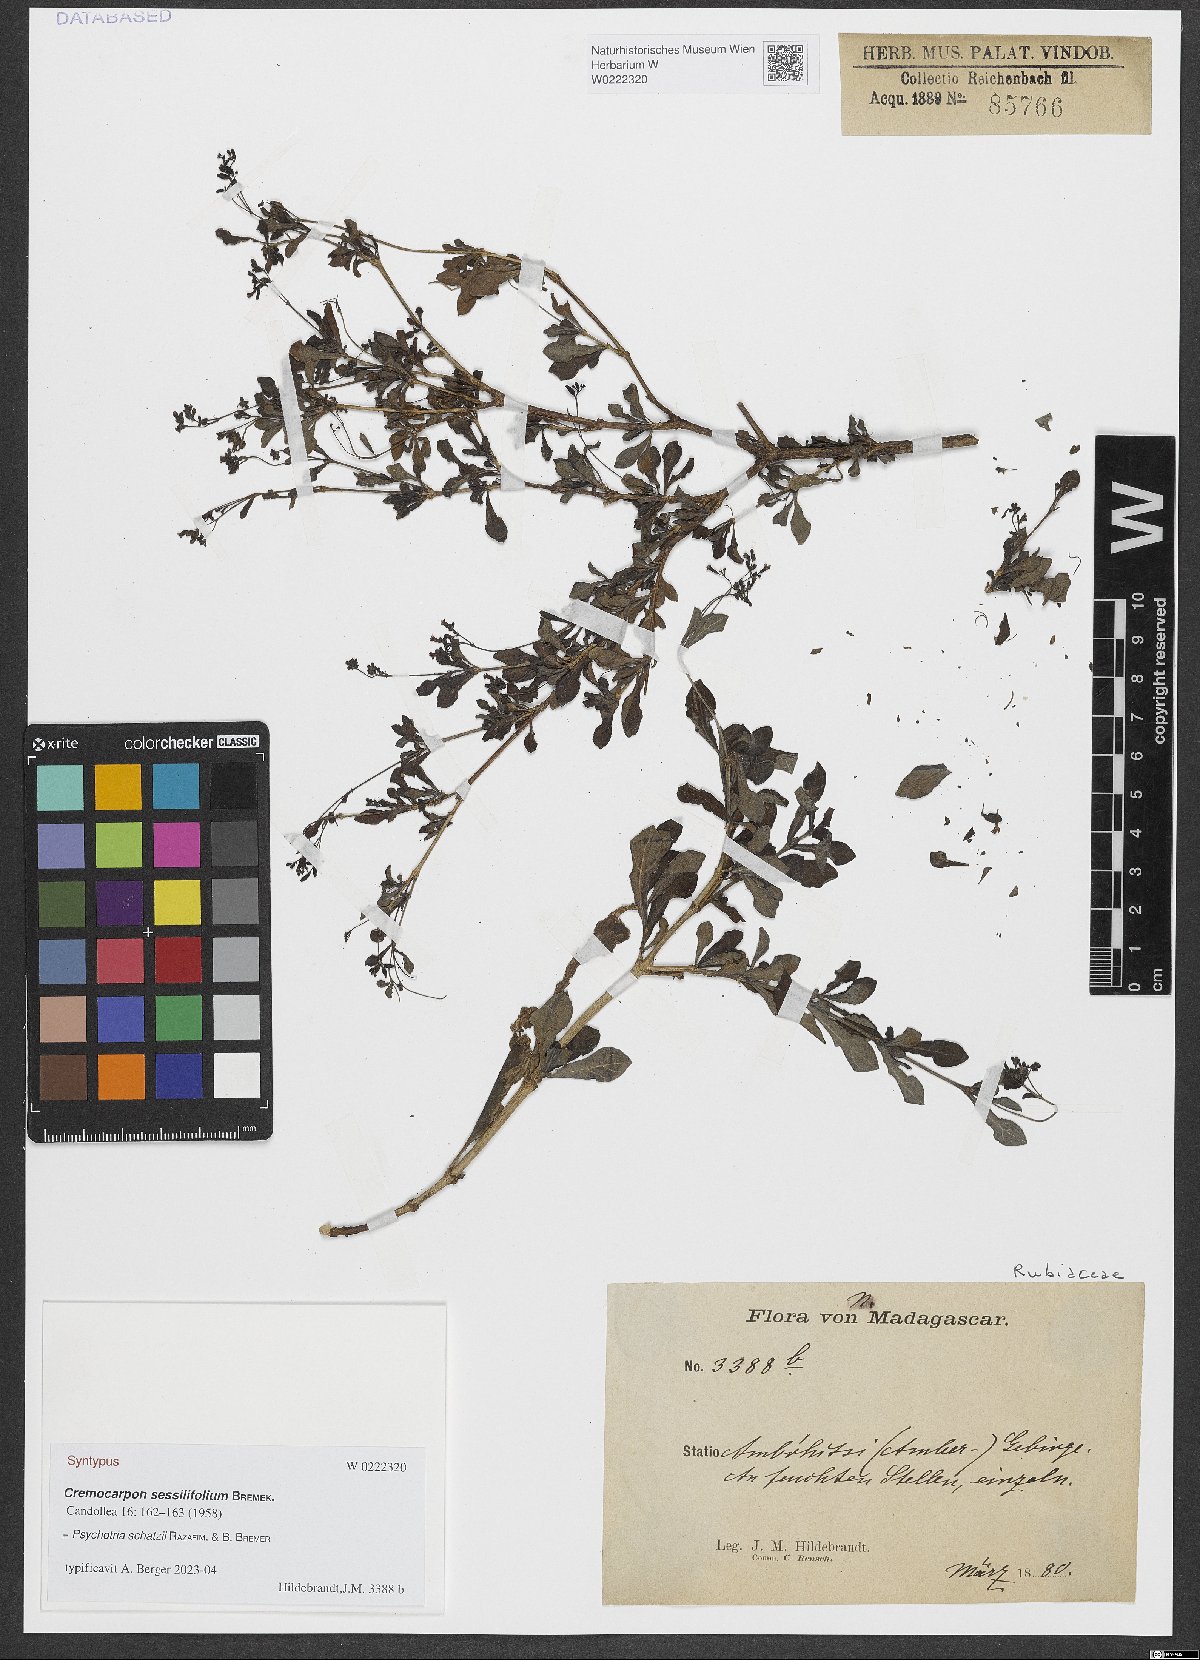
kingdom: Plantae
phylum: Tracheophyta
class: Magnoliopsida
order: Gentianales
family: Rubiaceae
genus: Psychotria
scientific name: Psychotria schatzii
